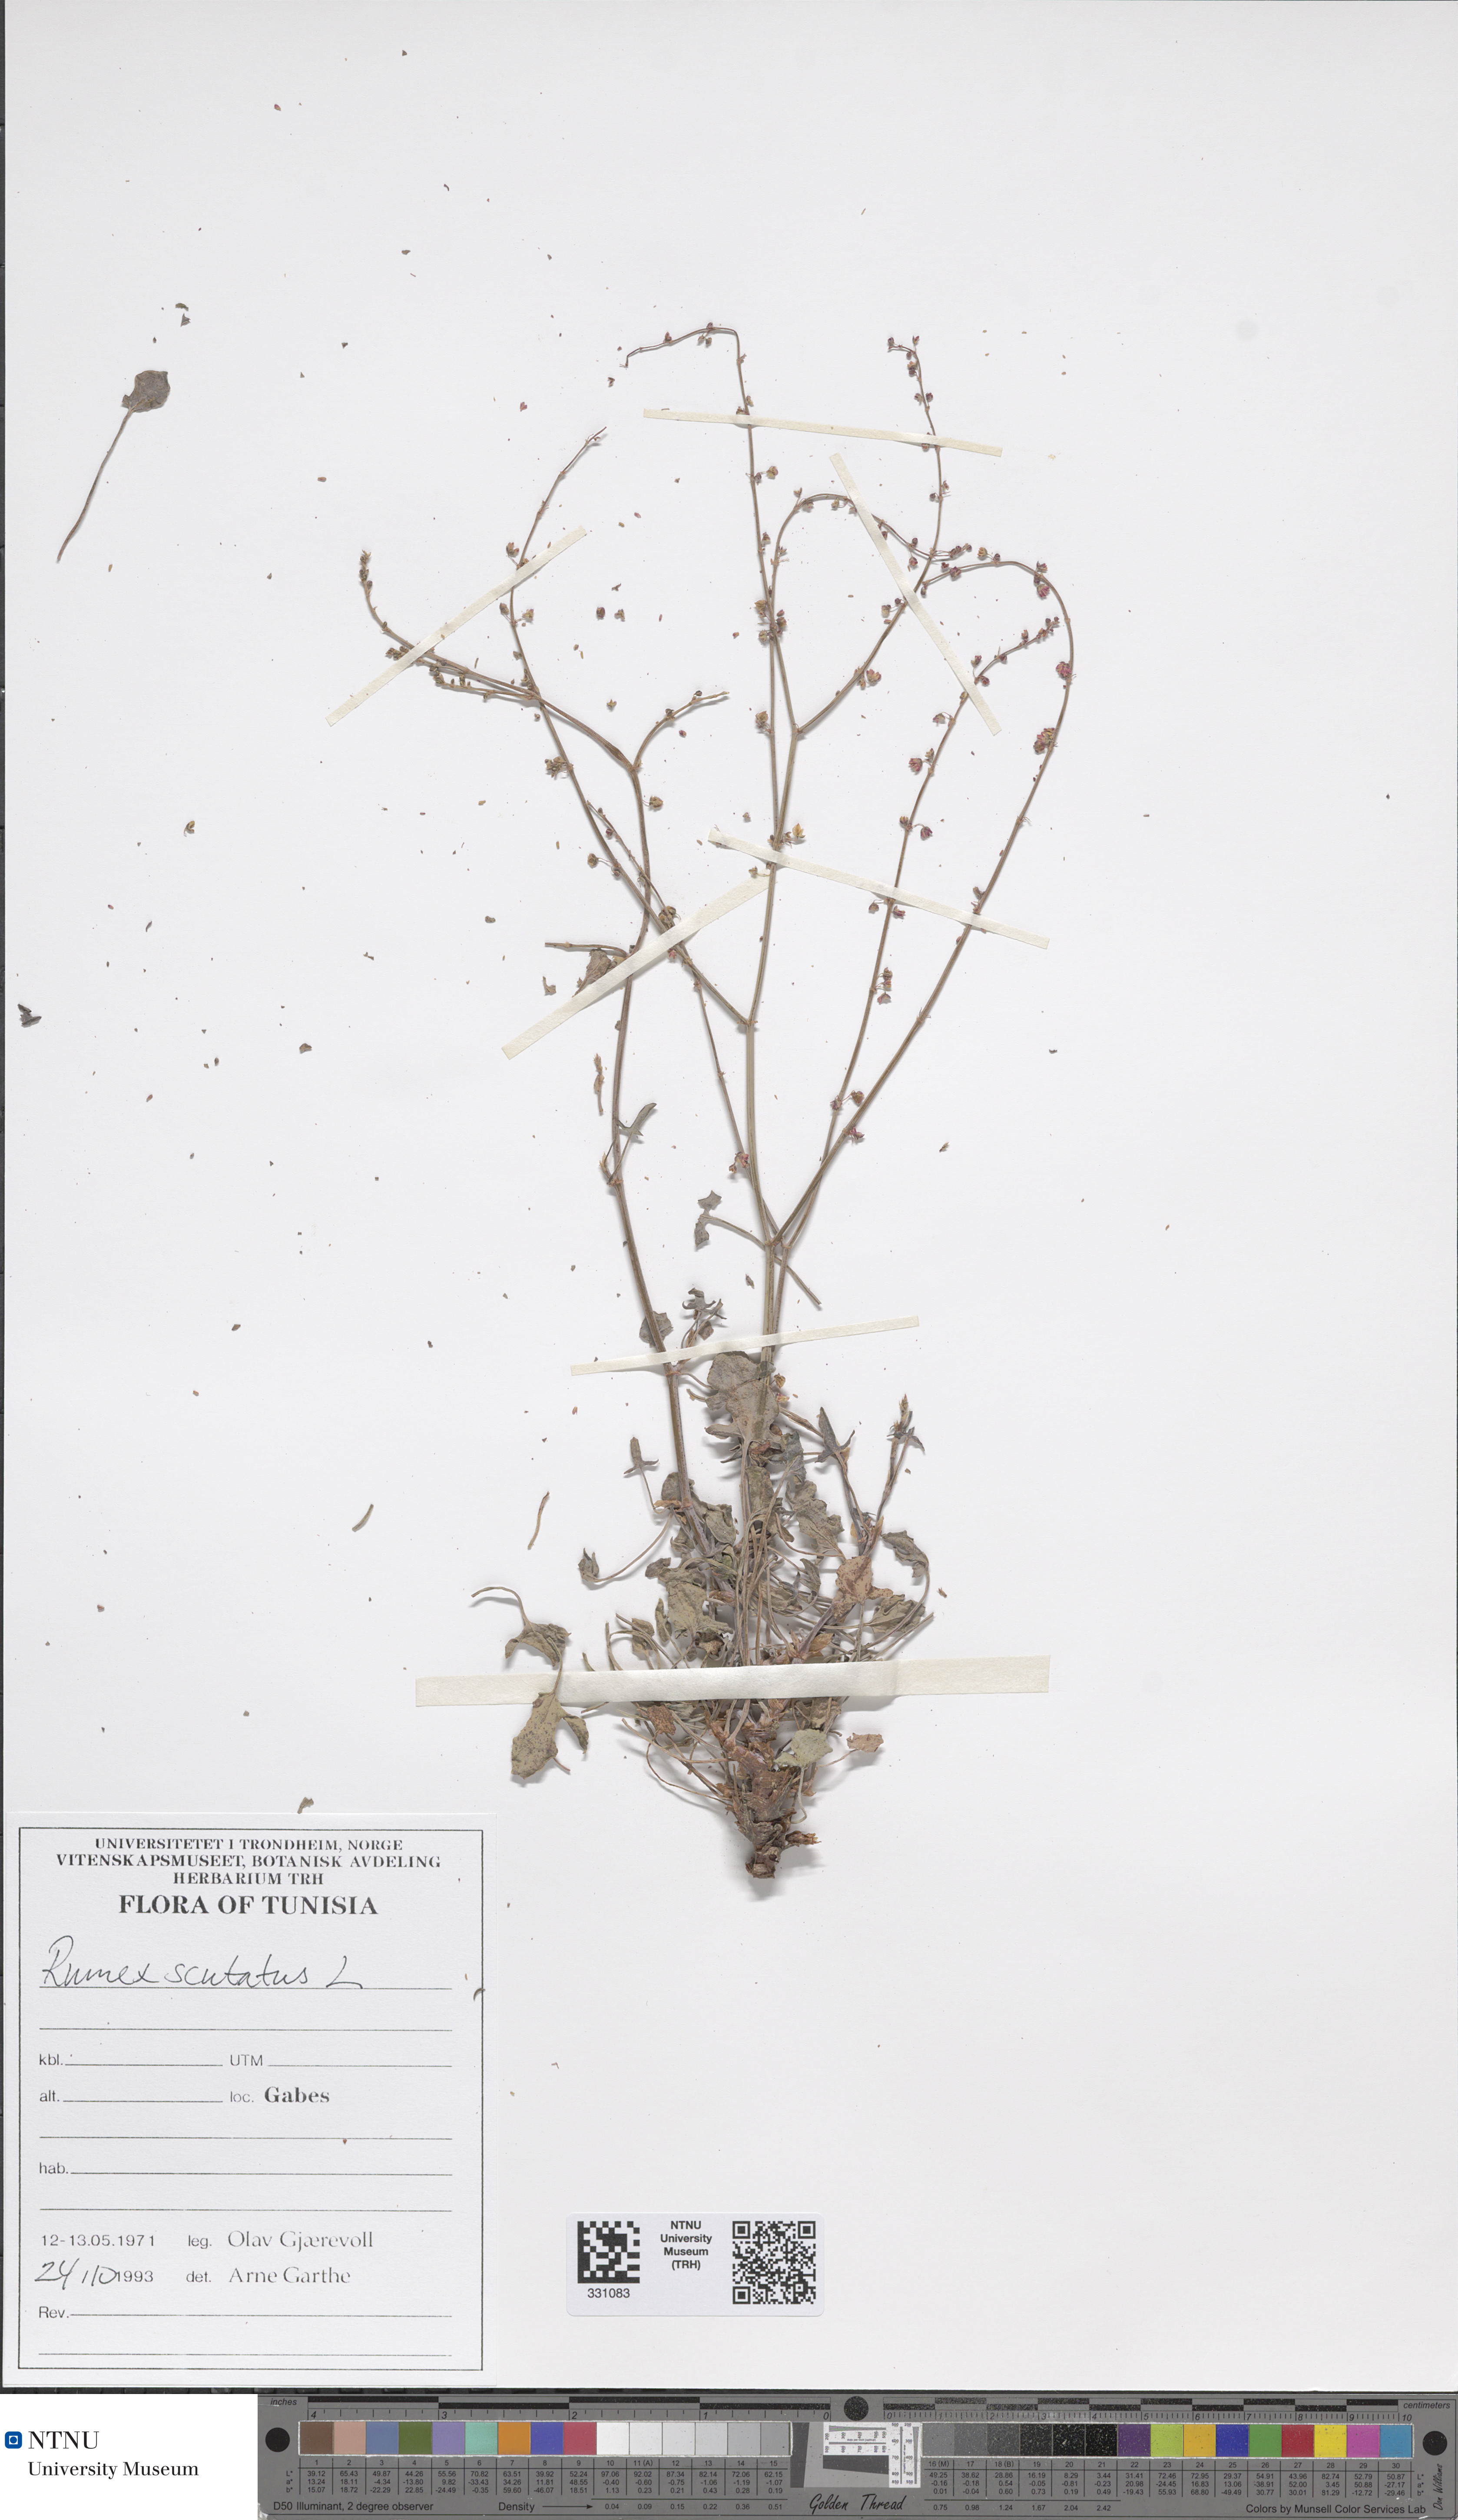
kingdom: Plantae
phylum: Tracheophyta
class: Magnoliopsida
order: Caryophyllales
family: Polygonaceae
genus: Rumex
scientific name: Rumex scutatus
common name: French sorrel
